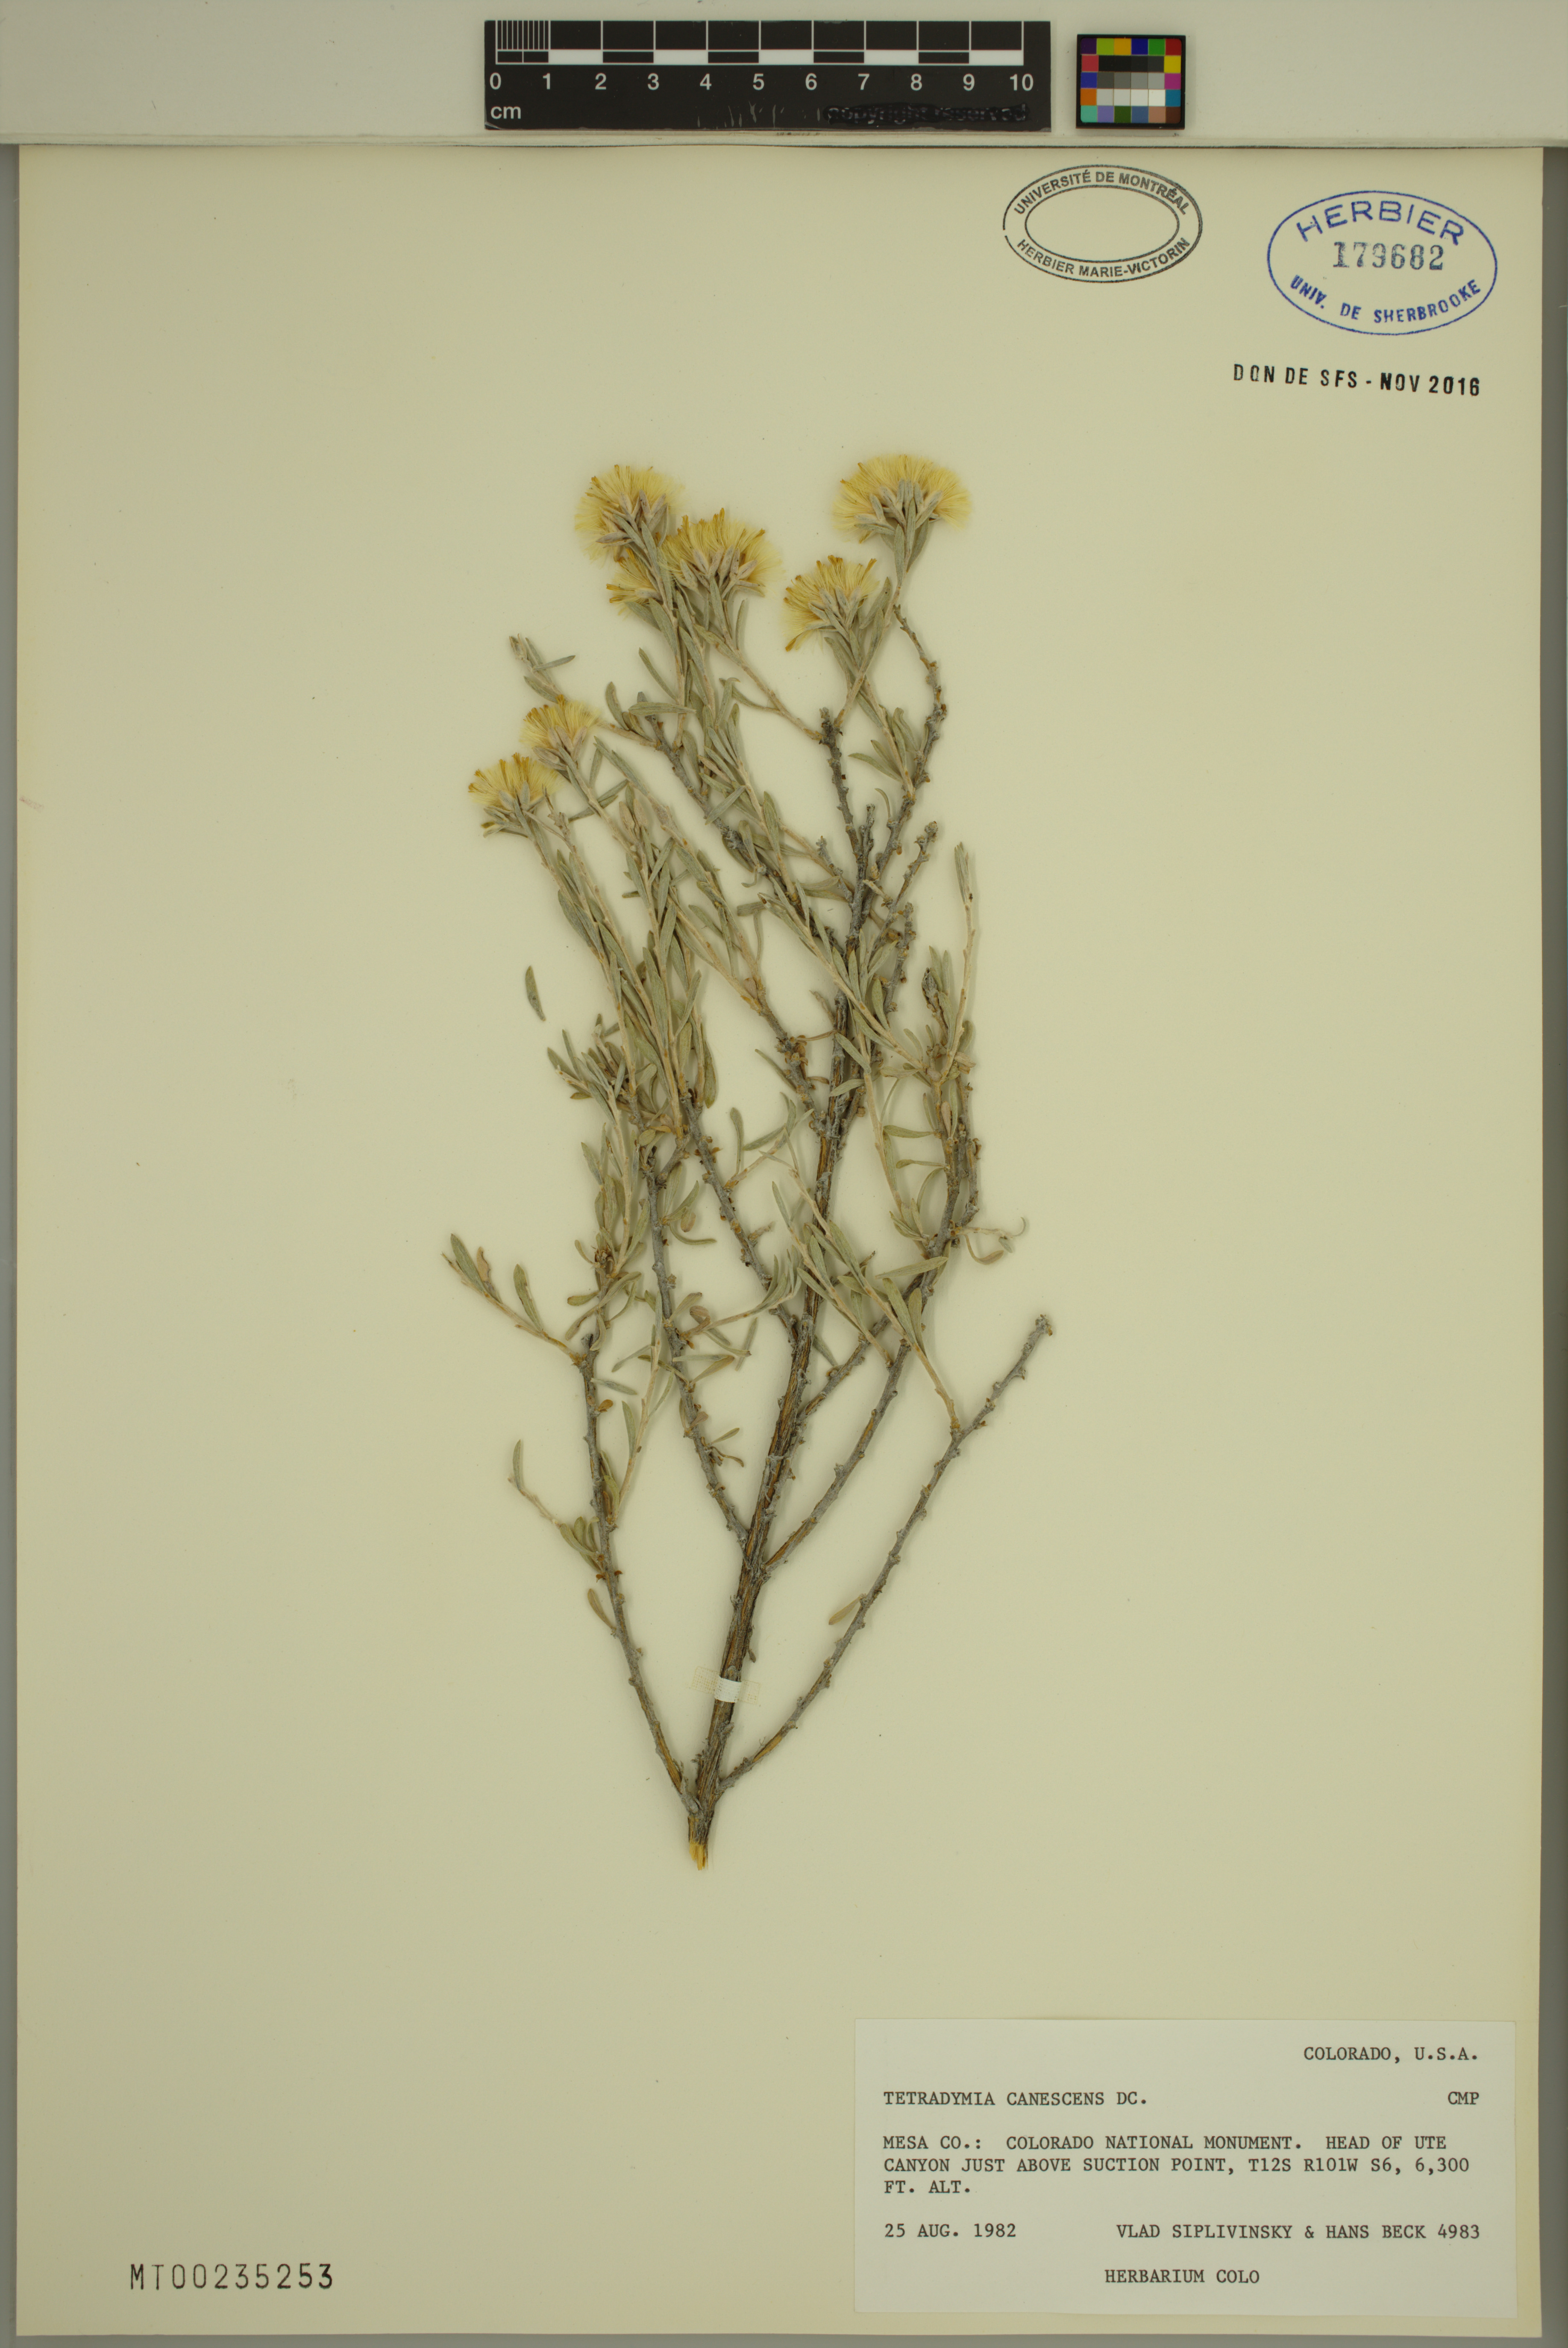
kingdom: Plantae
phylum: Tracheophyta
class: Magnoliopsida
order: Asterales
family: Asteraceae
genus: Tetradymia
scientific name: Tetradymia canescens
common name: Spineless horsebrush
